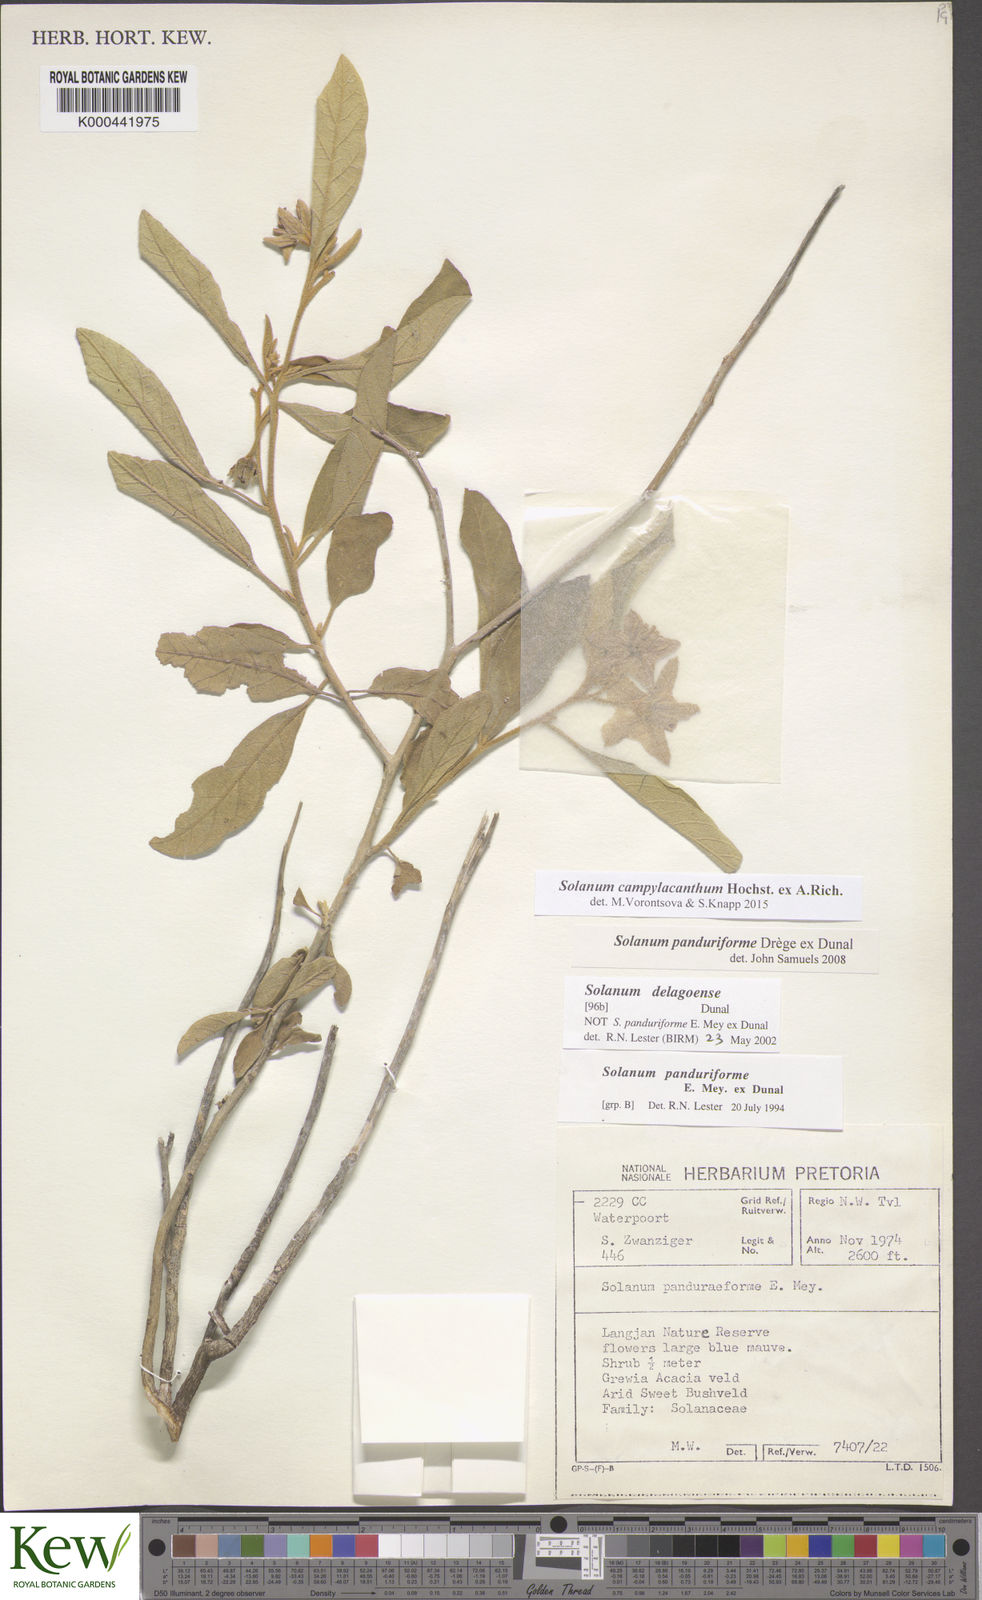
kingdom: Plantae
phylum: Tracheophyta
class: Magnoliopsida
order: Solanales
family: Solanaceae
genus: Solanum
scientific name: Solanum campylacanthum
